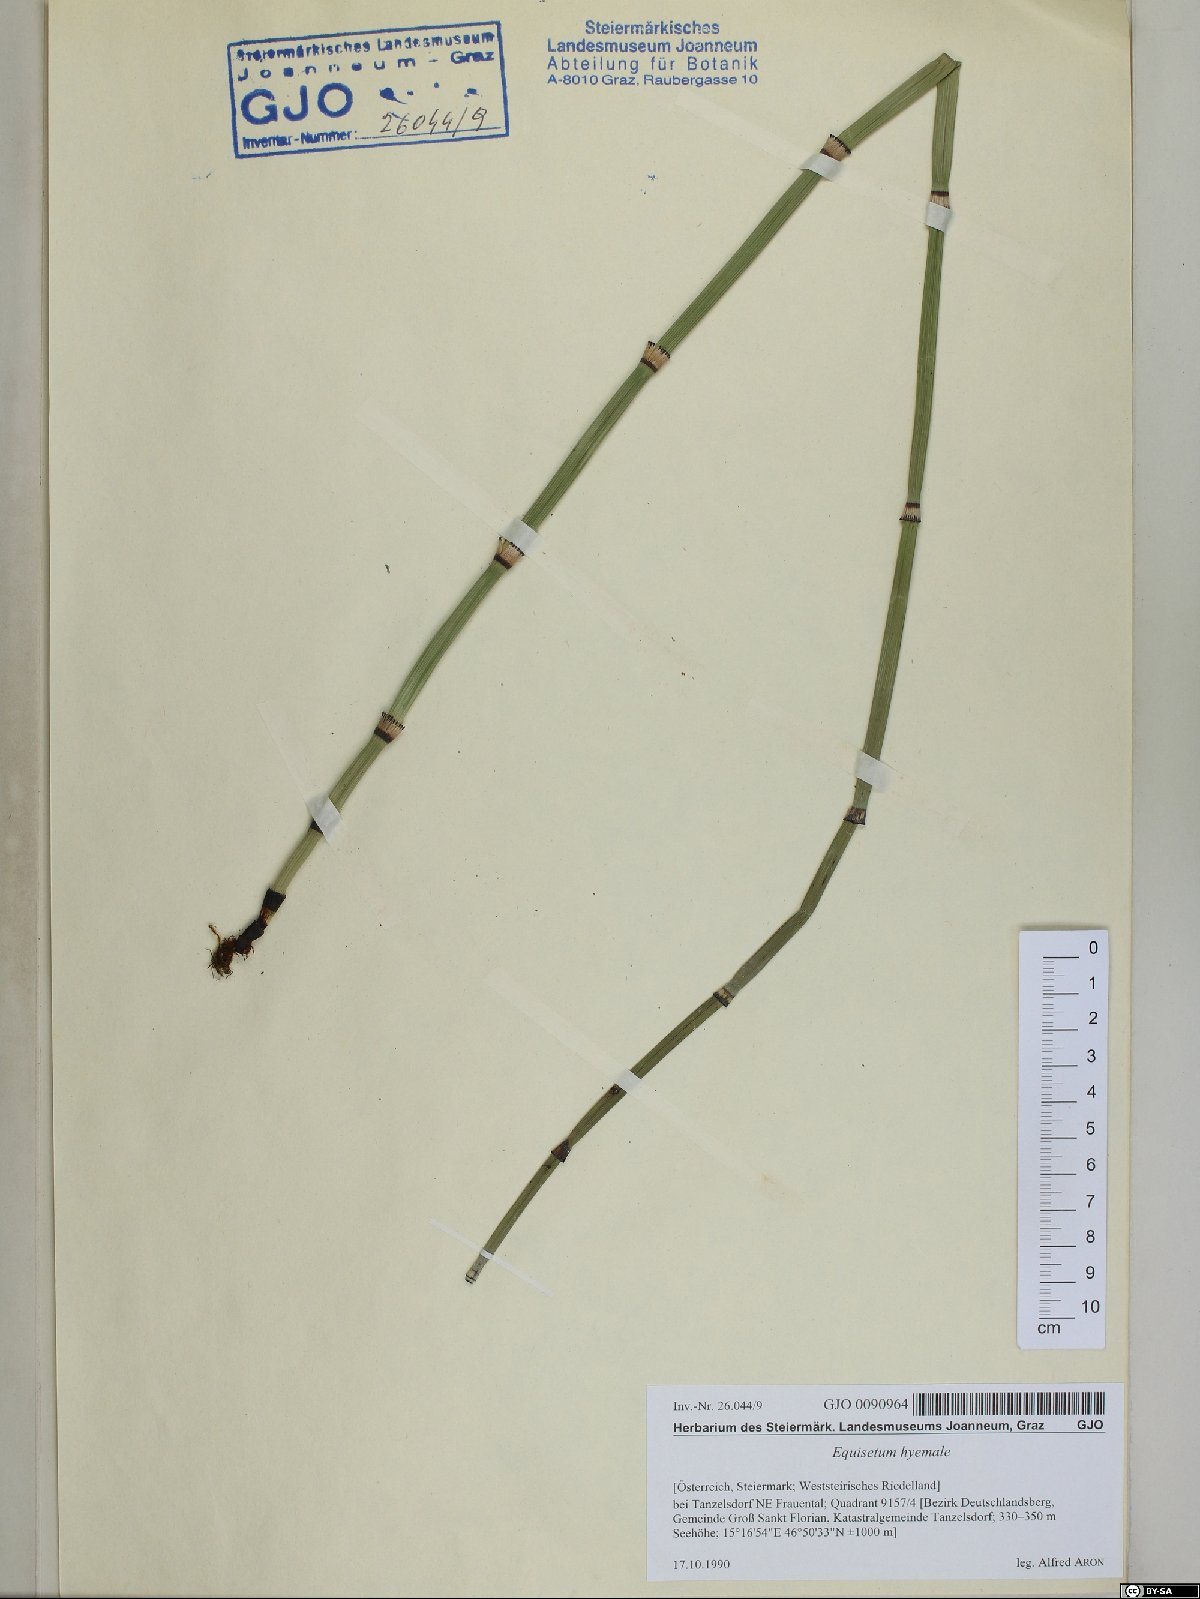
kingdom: Plantae
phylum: Tracheophyta
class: Polypodiopsida
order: Equisetales
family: Equisetaceae
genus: Equisetum
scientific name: Equisetum hyemale
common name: Rough horsetail
